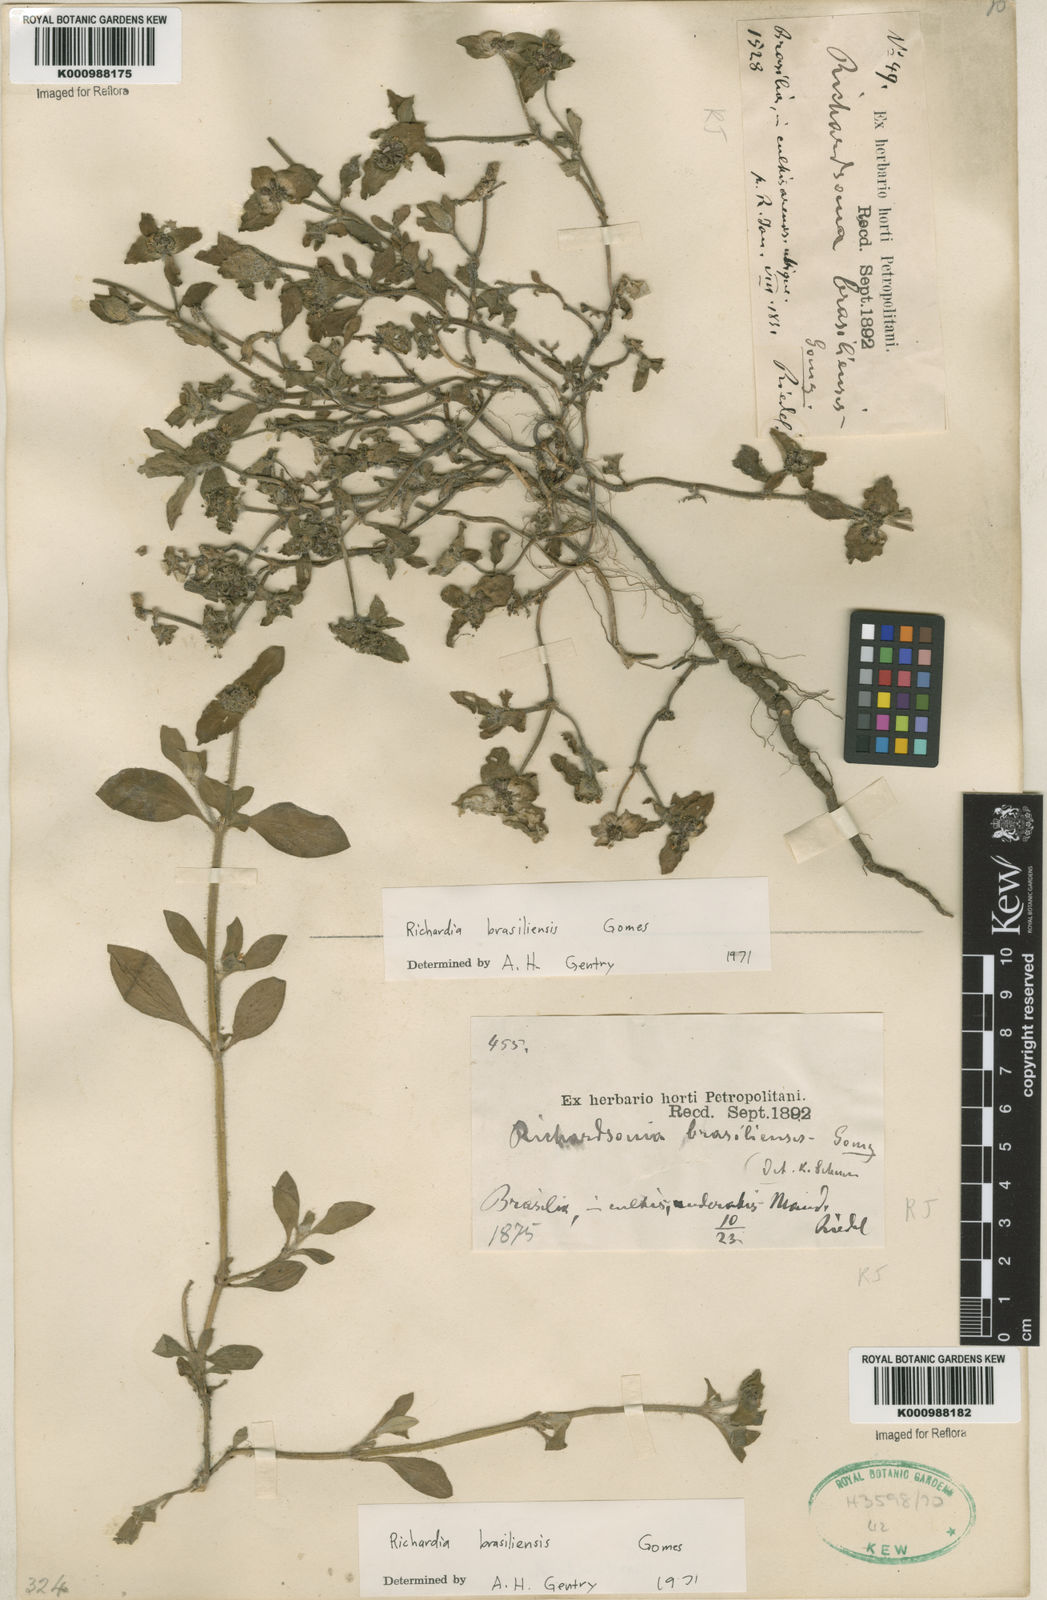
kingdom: Plantae
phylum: Tracheophyta
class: Magnoliopsida
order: Gentianales
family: Rubiaceae
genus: Richardia
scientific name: Richardia brasiliensis
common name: Tropical mexican clover
